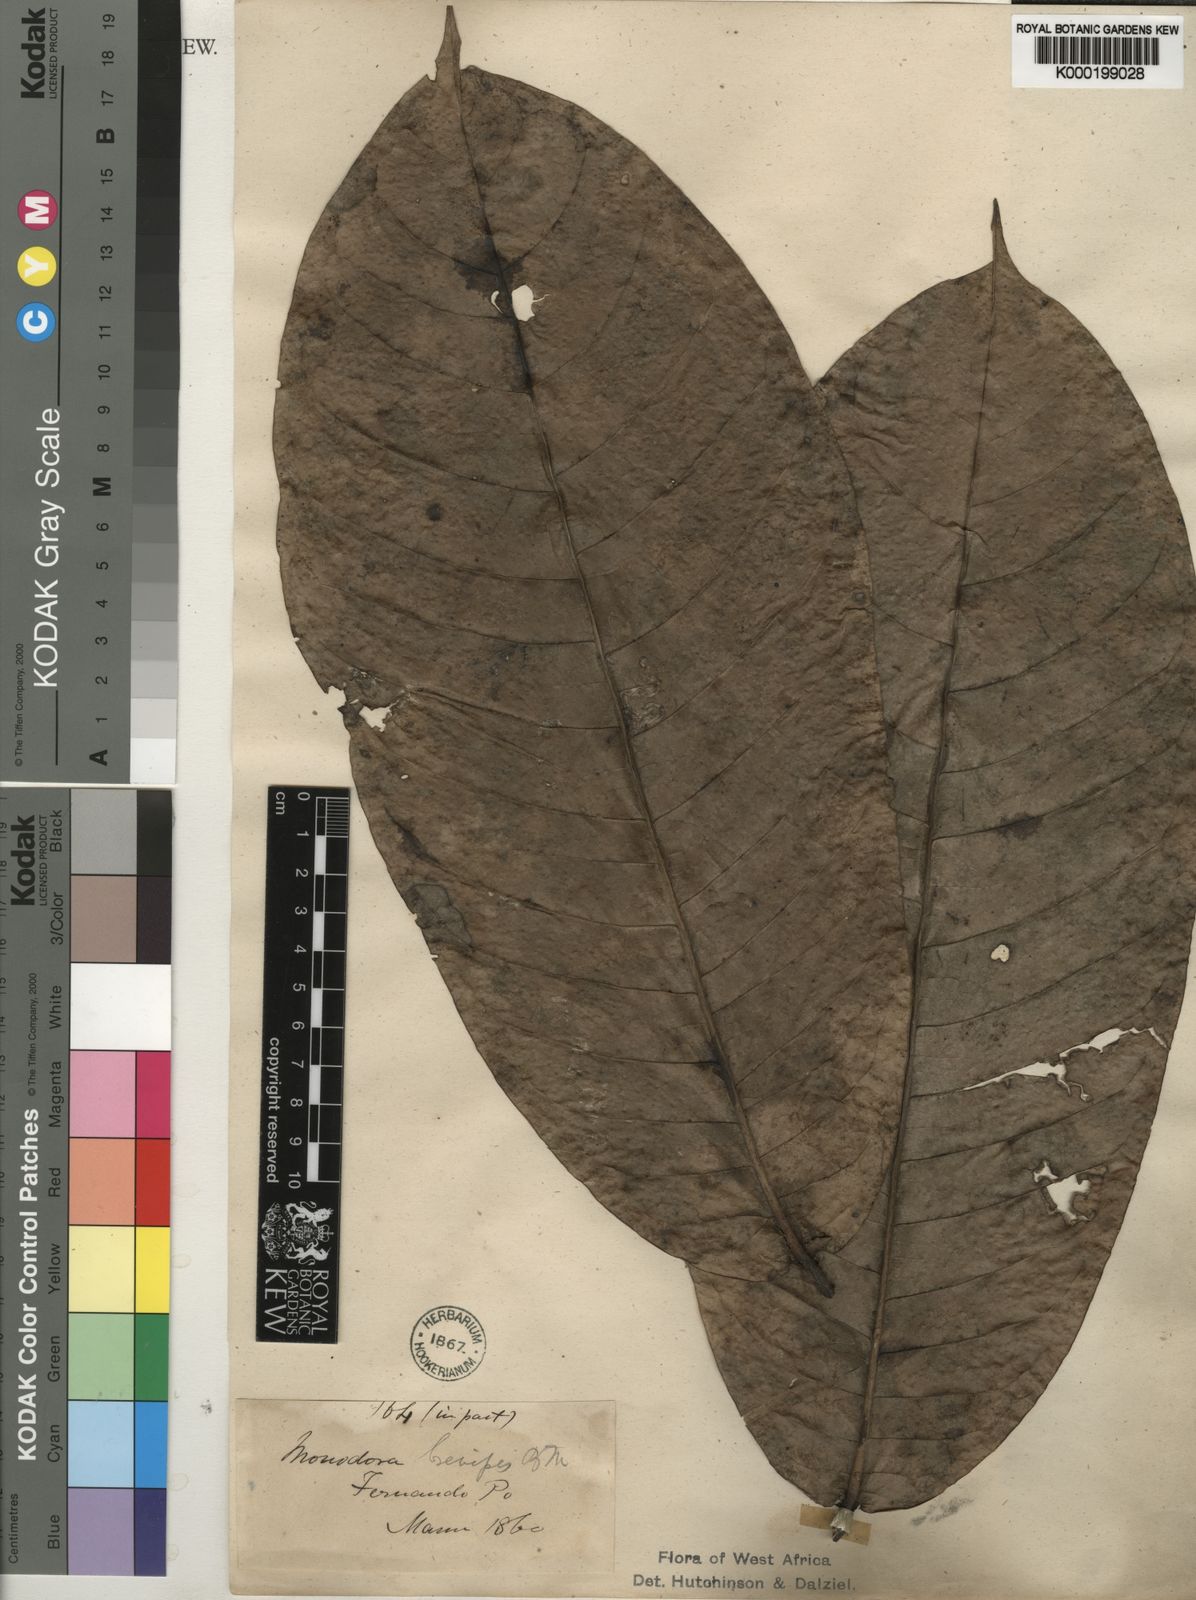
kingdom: Plantae
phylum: Tracheophyta
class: Magnoliopsida
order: Magnoliales
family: Annonaceae
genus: Monodora
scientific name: Monodora undulata
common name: Yellow-flower-nutmeg
